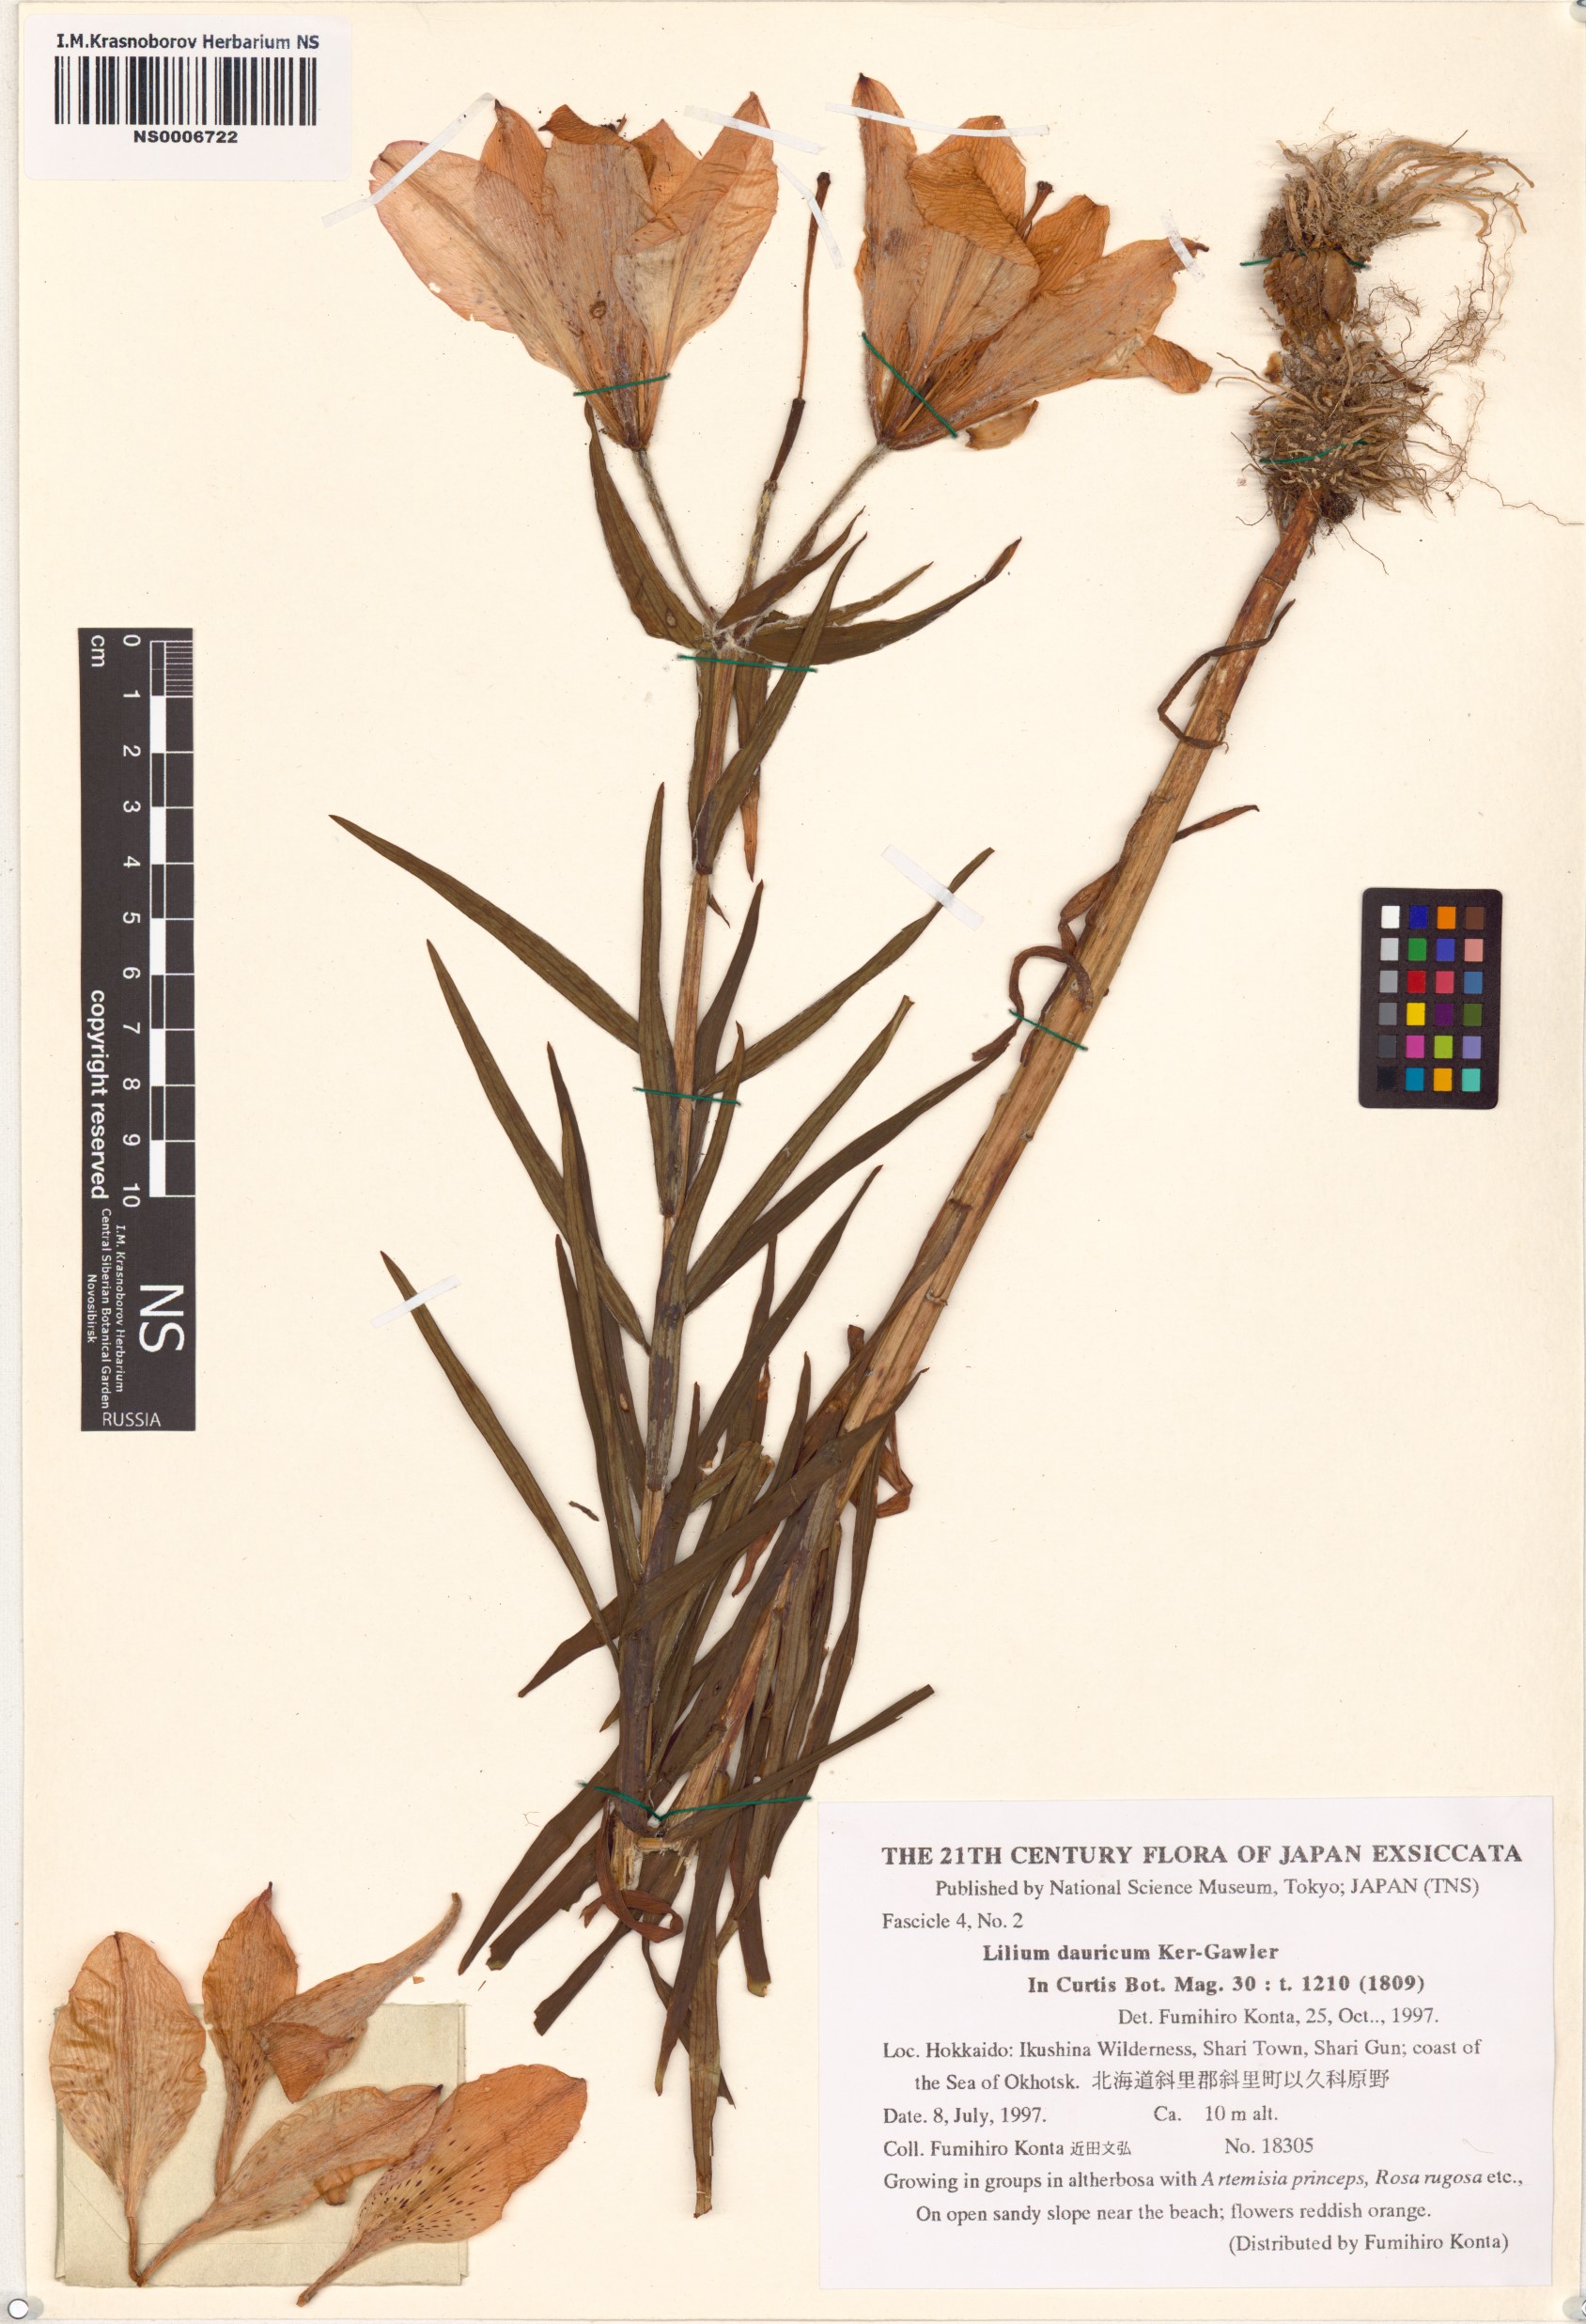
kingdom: Plantae
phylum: Tracheophyta
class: Liliopsida
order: Liliales
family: Liliaceae
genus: Lilium
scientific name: Lilium pensylvanicum
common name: Candlestick lily
